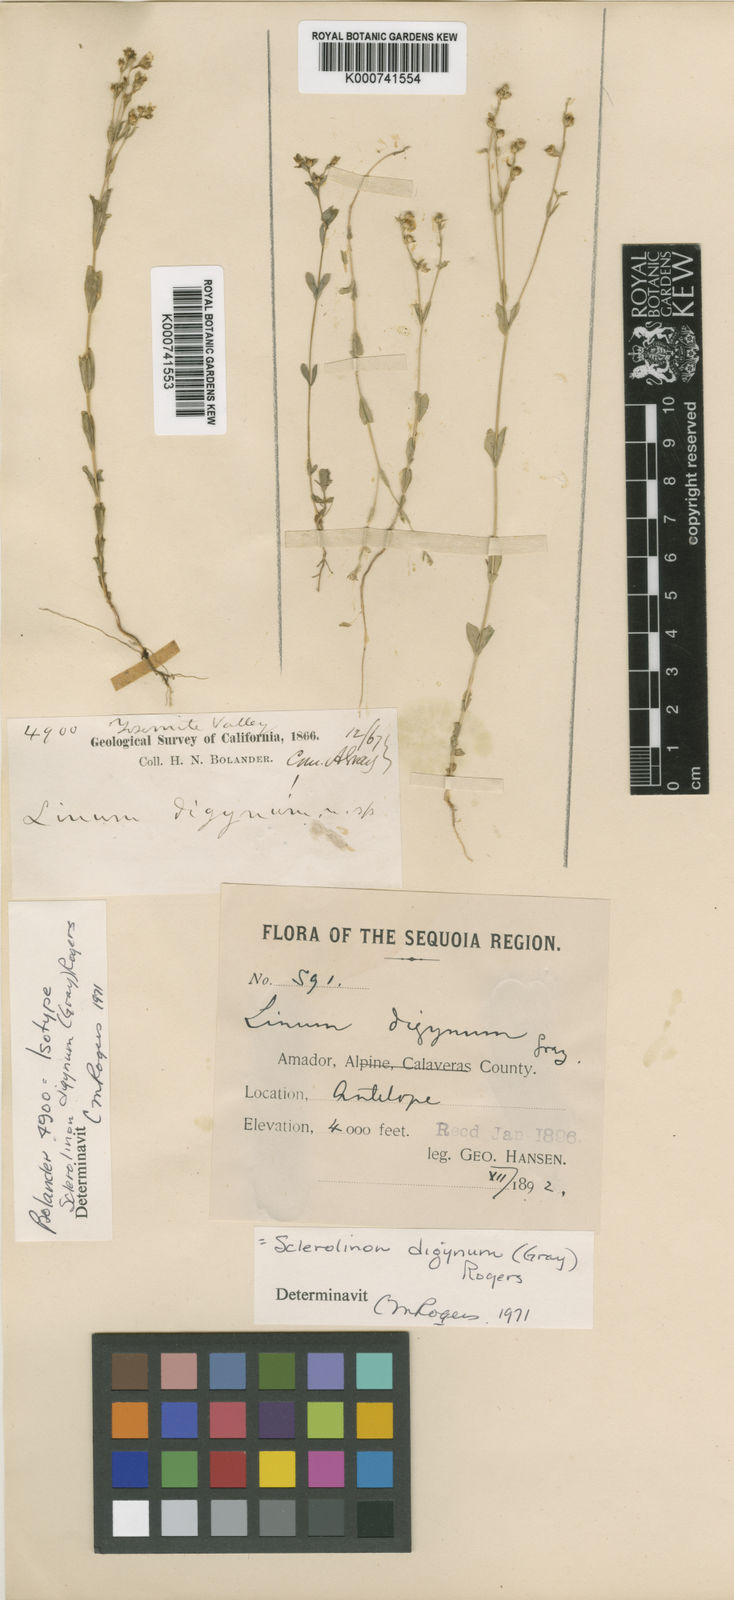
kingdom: Plantae
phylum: Tracheophyta
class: Magnoliopsida
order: Malpighiales
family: Linaceae
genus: Sclerolinon
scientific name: Sclerolinon digynum
